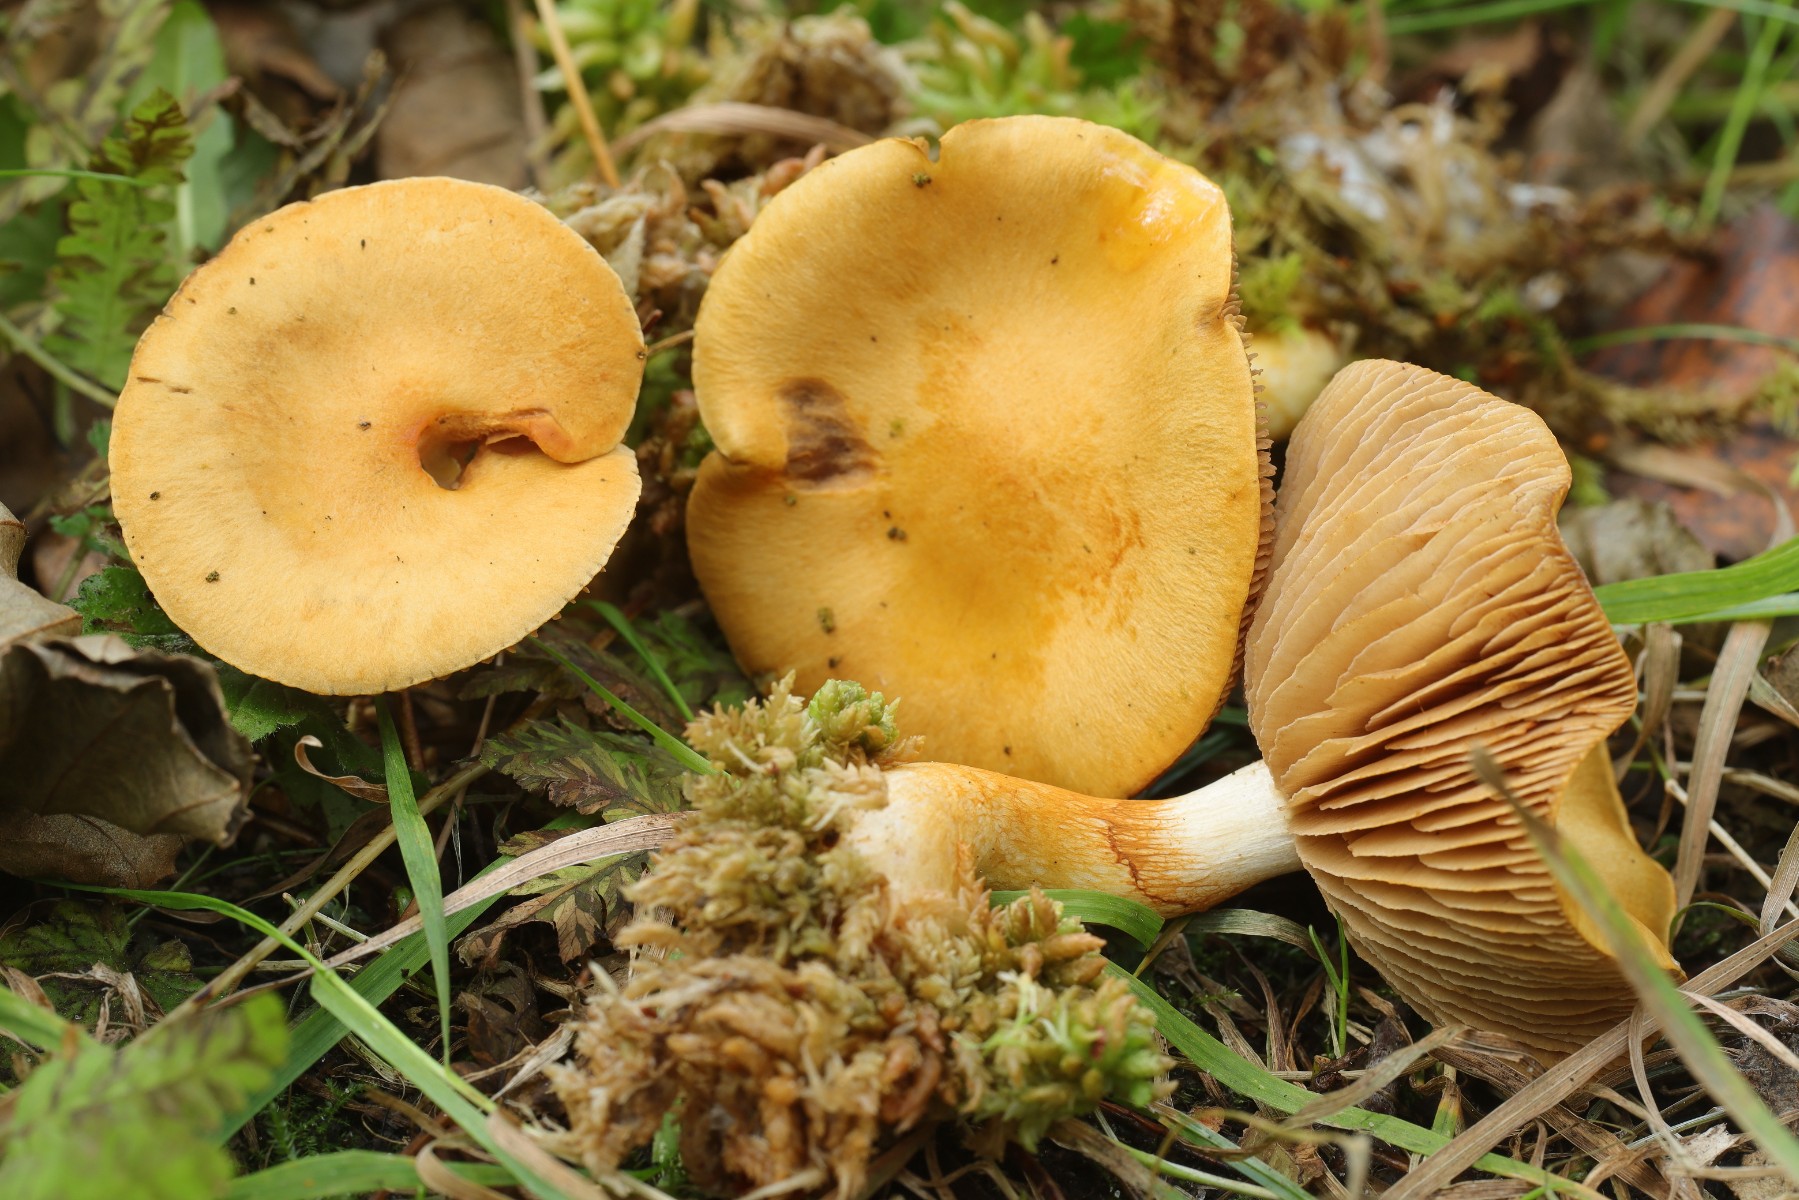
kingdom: Fungi
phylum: Basidiomycota
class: Agaricomycetes
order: Agaricales
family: Cortinariaceae
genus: Cortinarius
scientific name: Cortinarius illibatus
